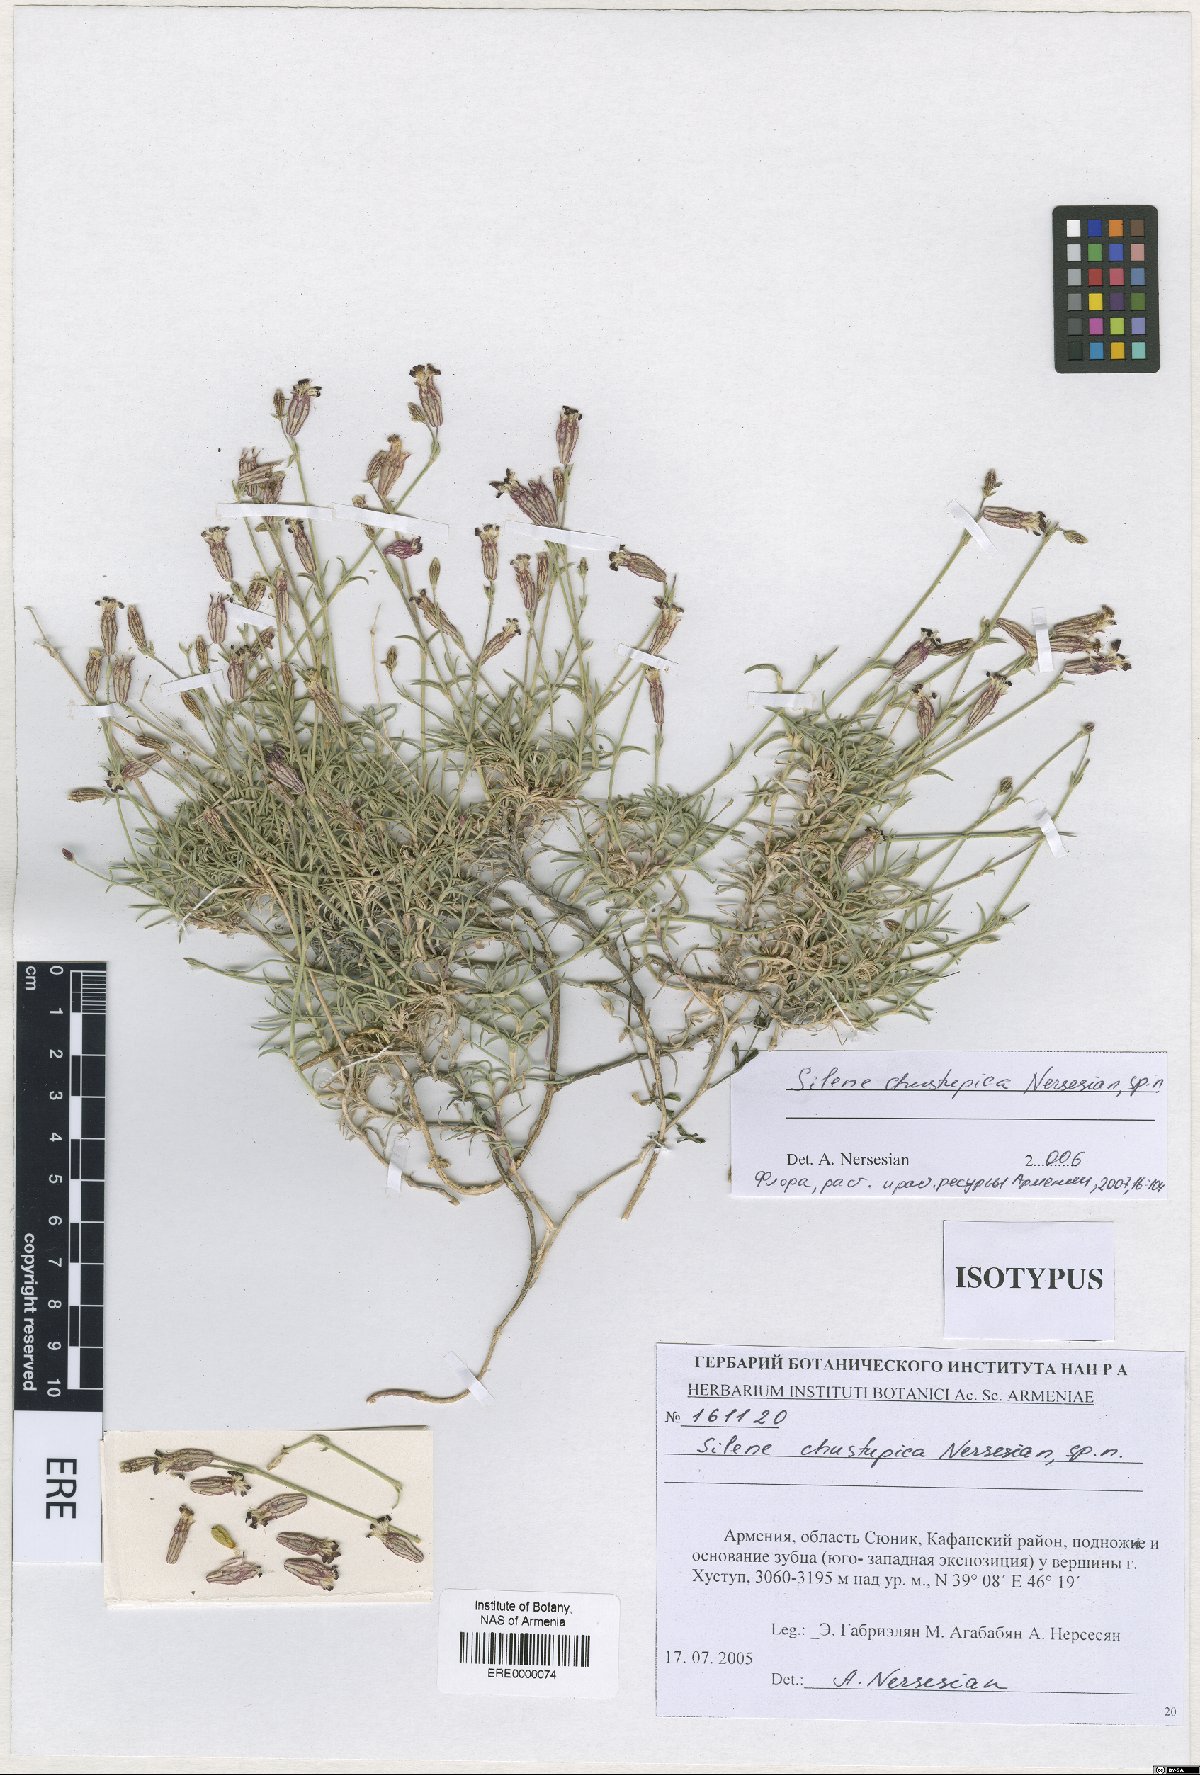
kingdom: Plantae
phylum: Tracheophyta
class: Magnoliopsida
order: Caryophyllales
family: Caryophyllaceae
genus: Silene
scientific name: Silene pungens
